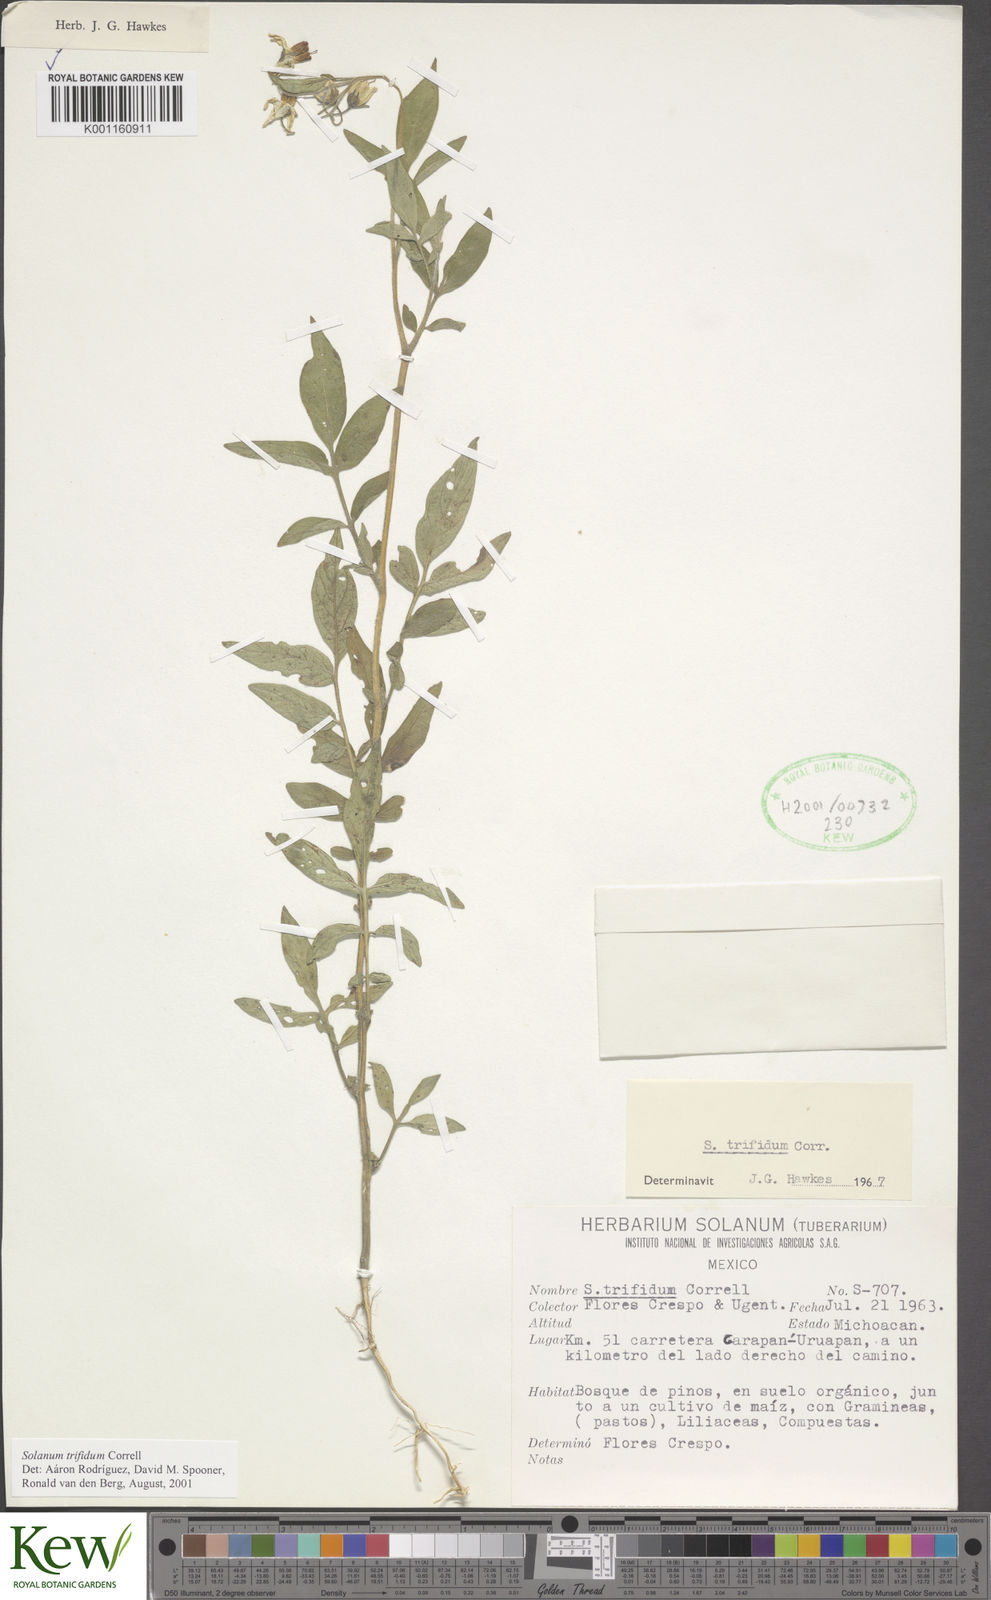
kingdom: Plantae
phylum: Tracheophyta
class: Magnoliopsida
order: Solanales
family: Solanaceae
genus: Solanum
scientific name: Solanum trifidum
